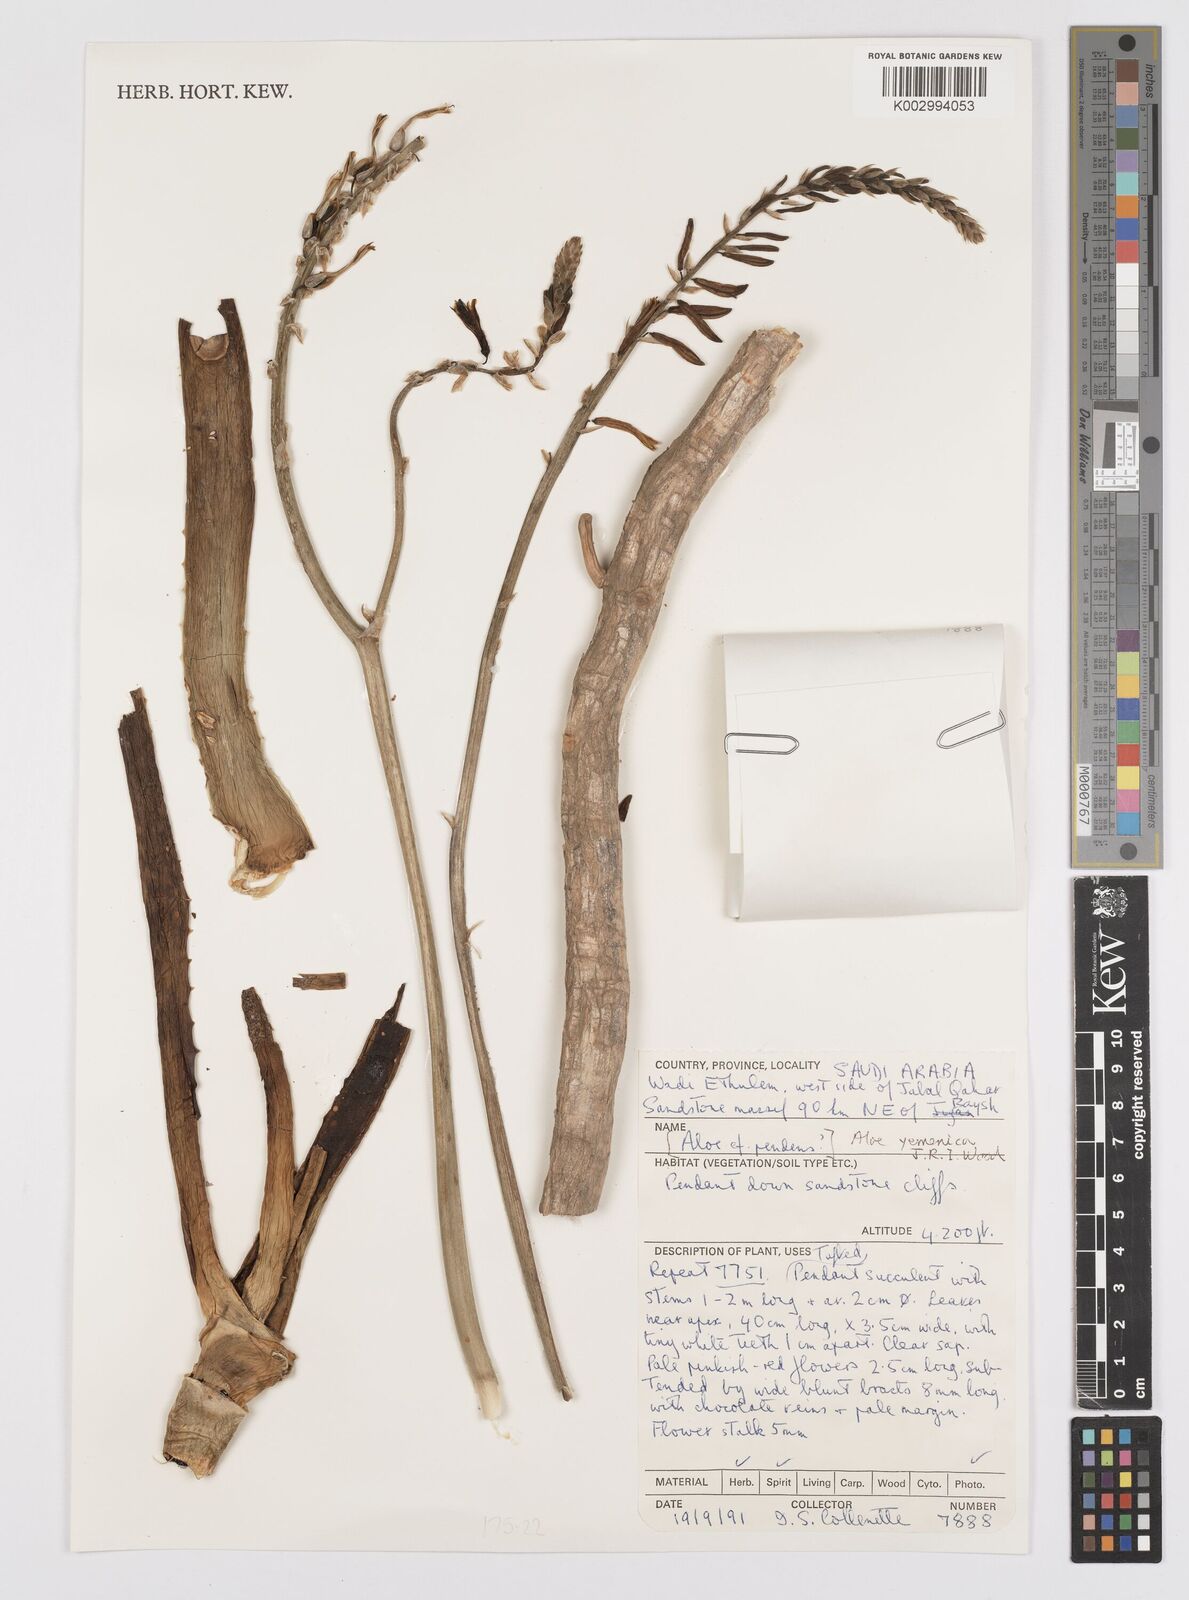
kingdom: Plantae
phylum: Tracheophyta
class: Liliopsida
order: Asparagales
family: Asphodelaceae
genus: Aloe
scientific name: Aloe yemenica
